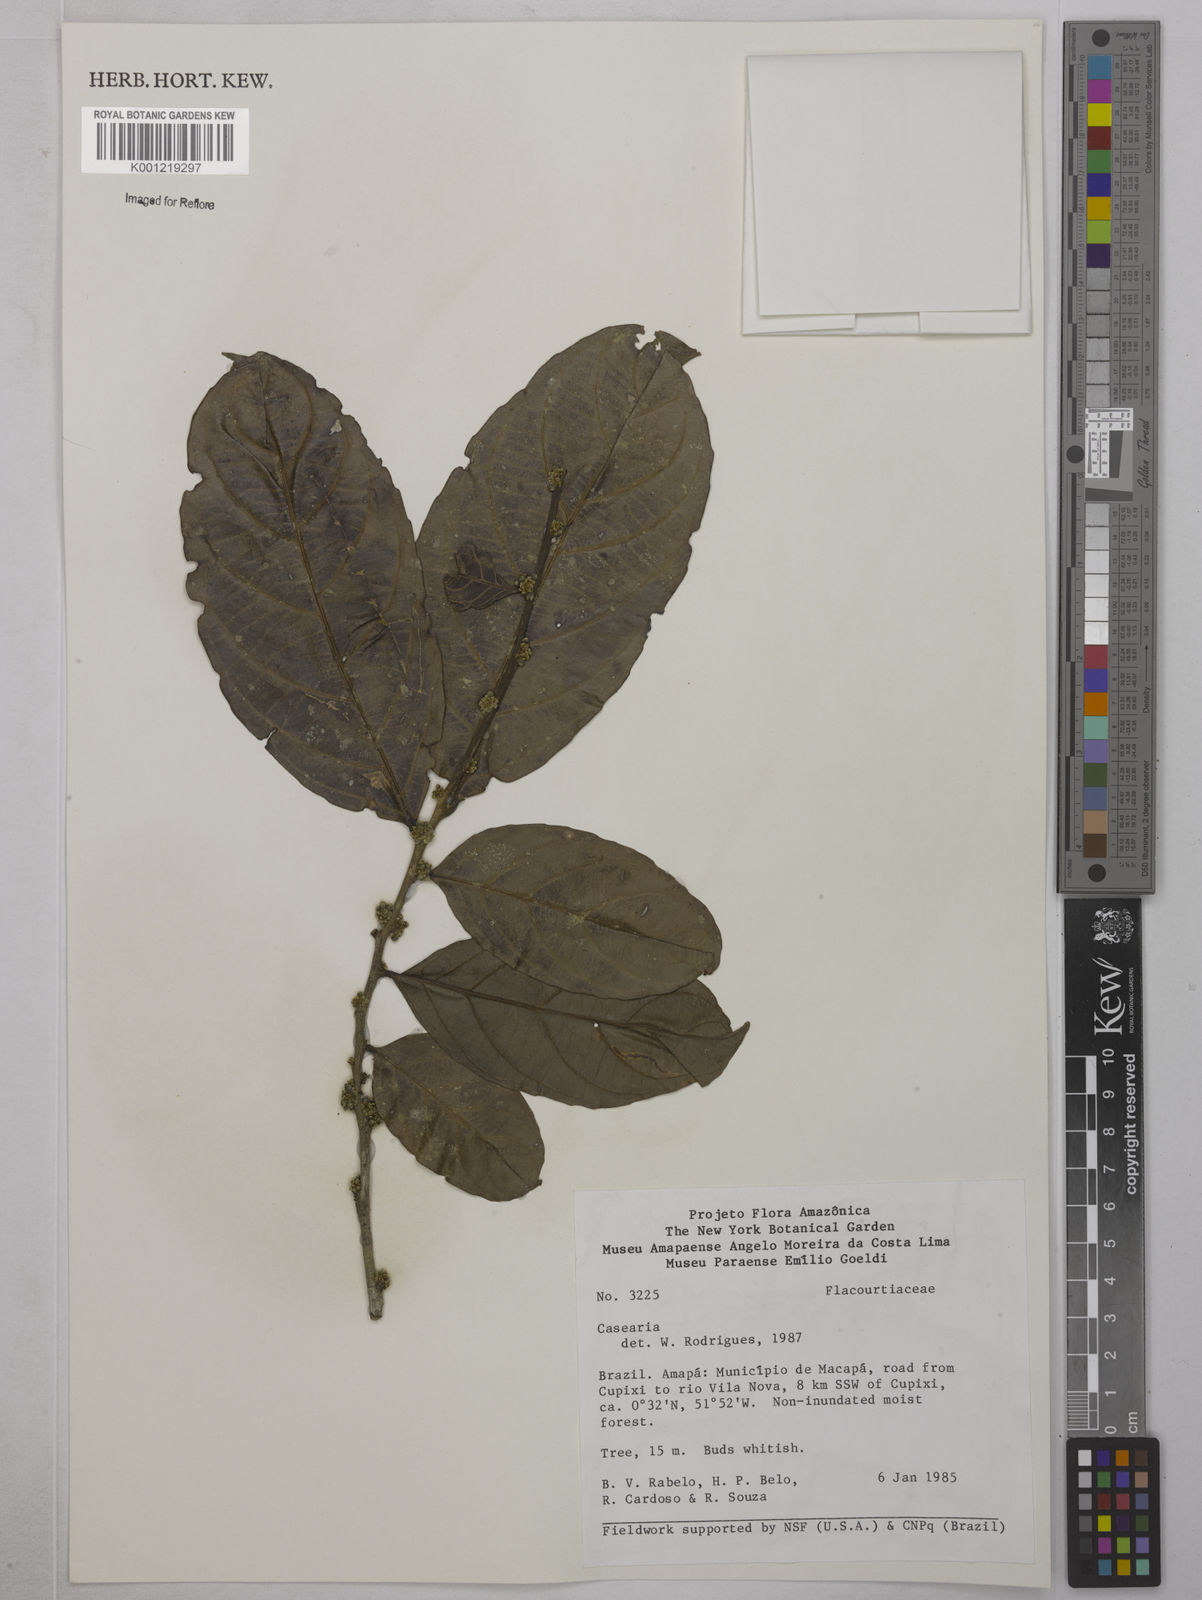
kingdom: Plantae
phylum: Tracheophyta
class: Magnoliopsida
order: Malpighiales
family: Salicaceae
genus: Casearia
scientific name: Casearia
